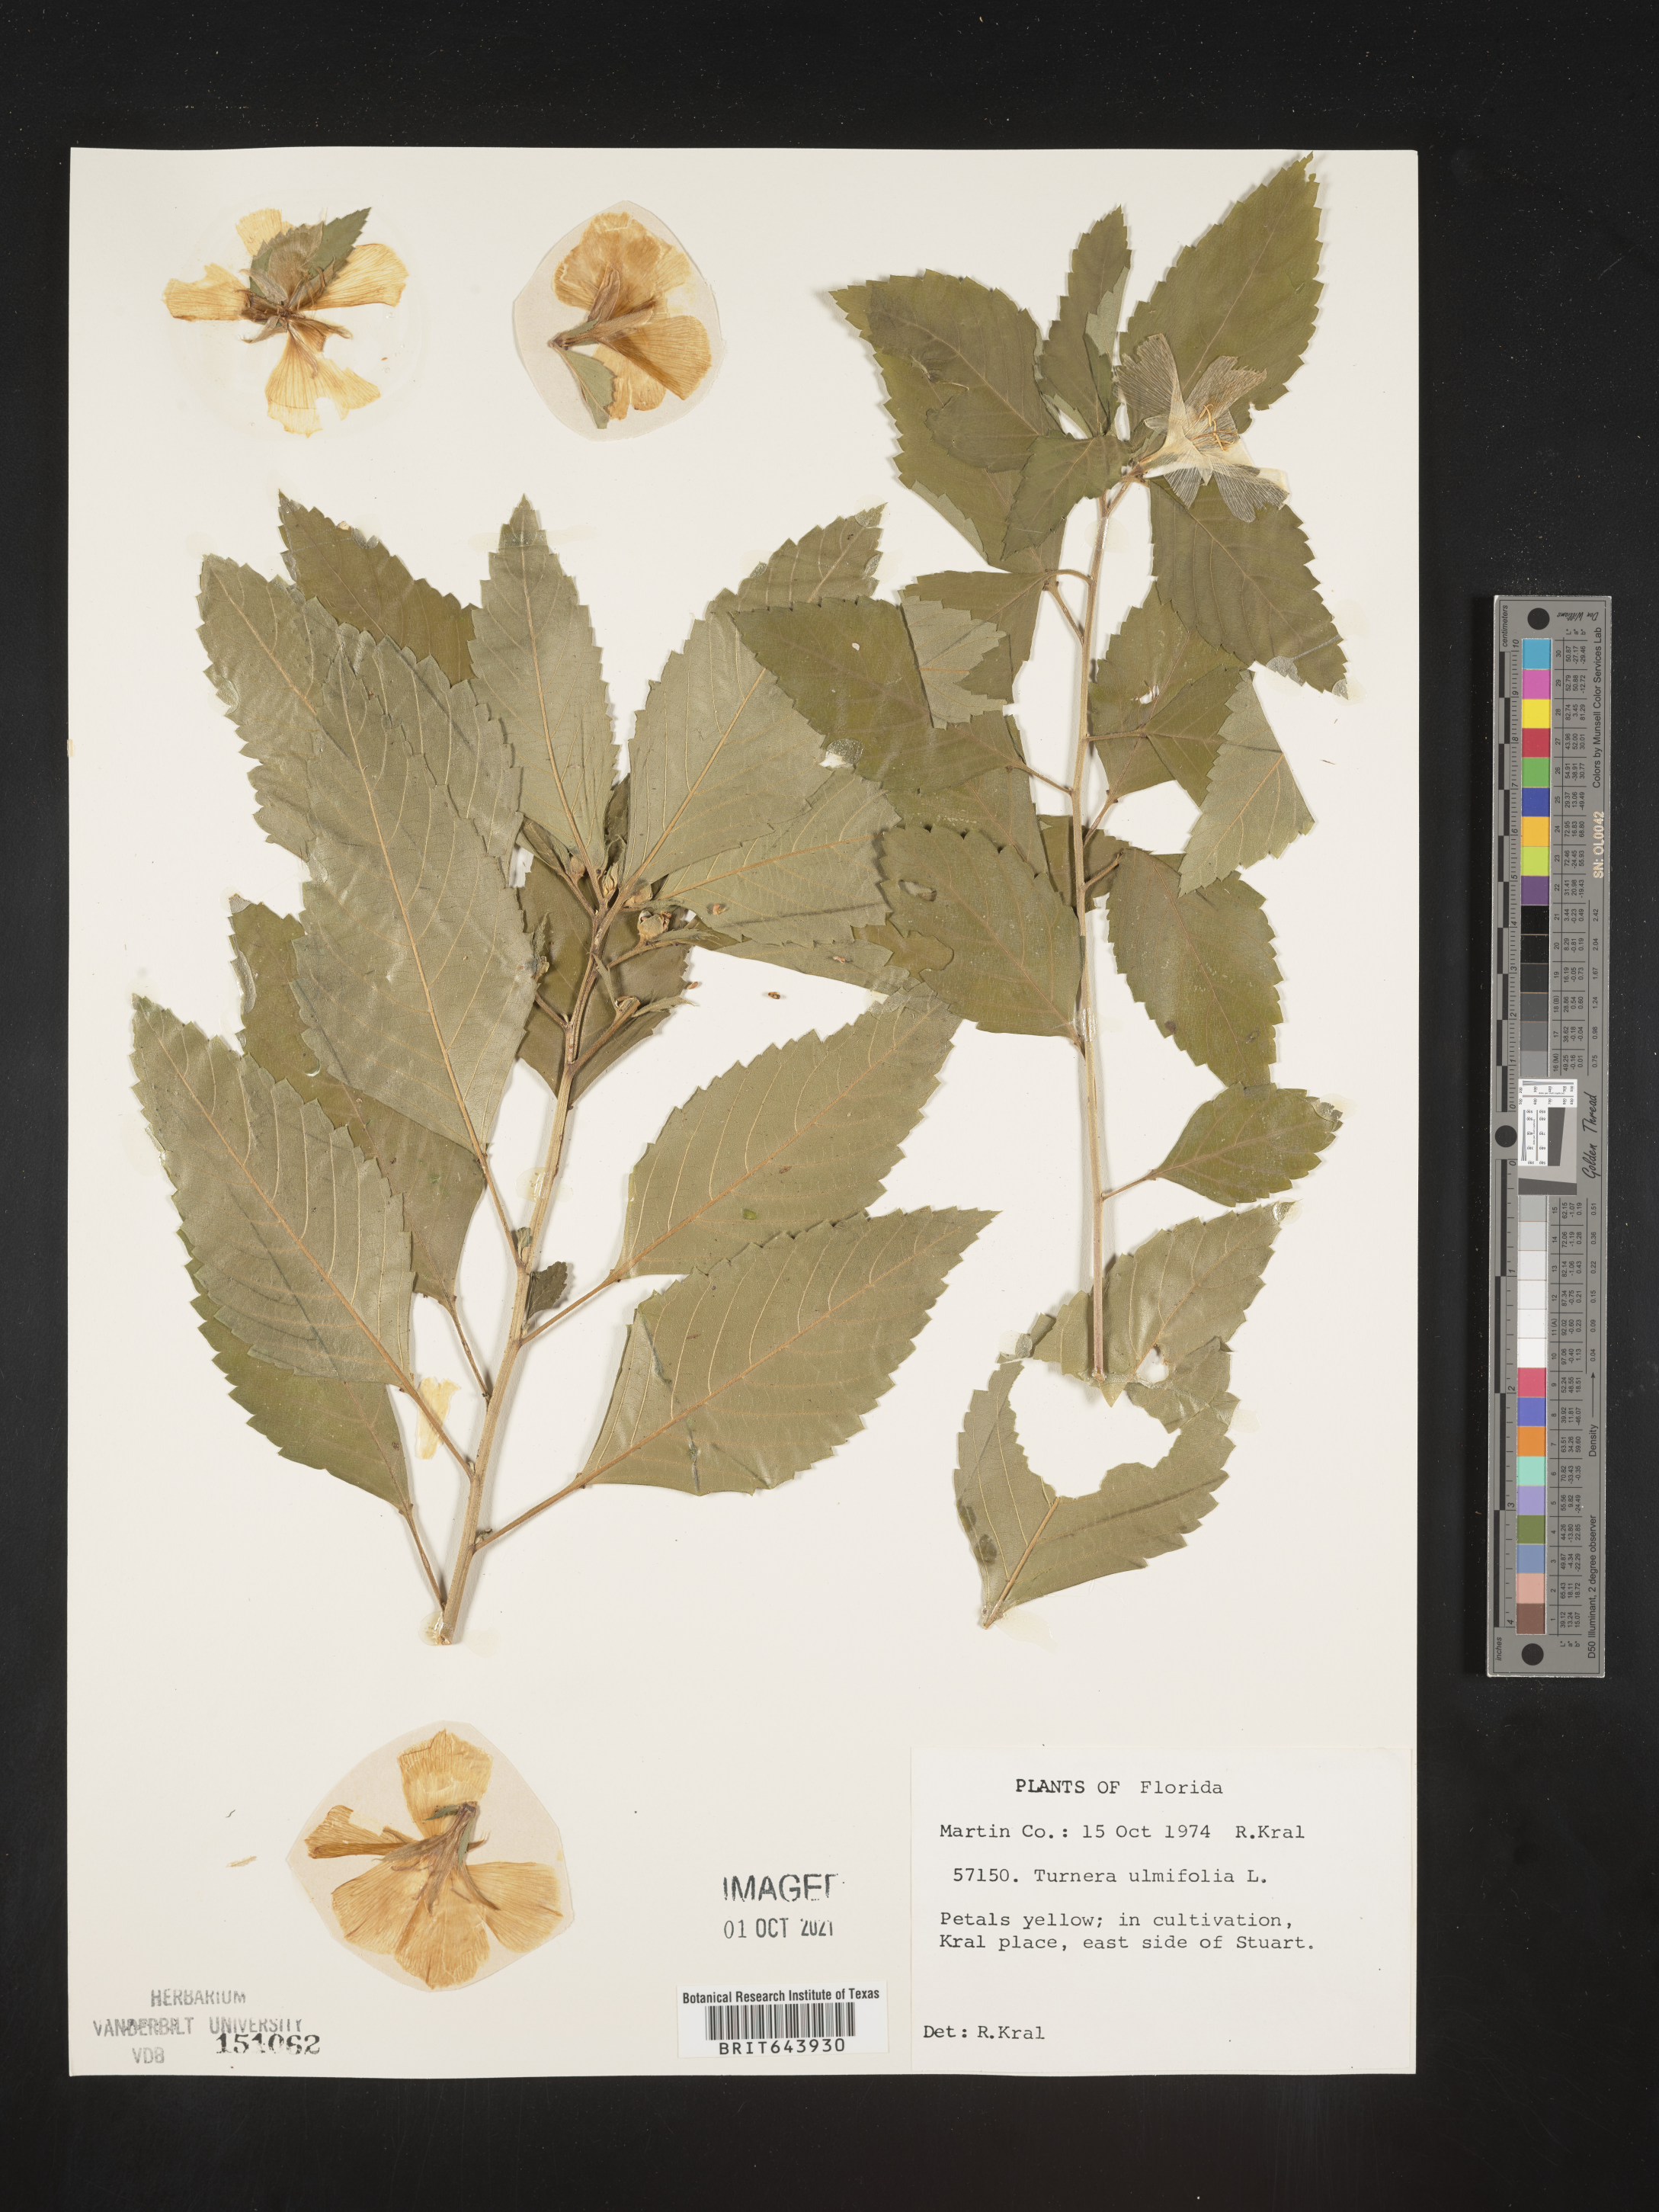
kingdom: Plantae
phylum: Tracheophyta
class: Magnoliopsida
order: Malpighiales
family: Turneraceae
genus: Turnera
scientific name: Turnera
